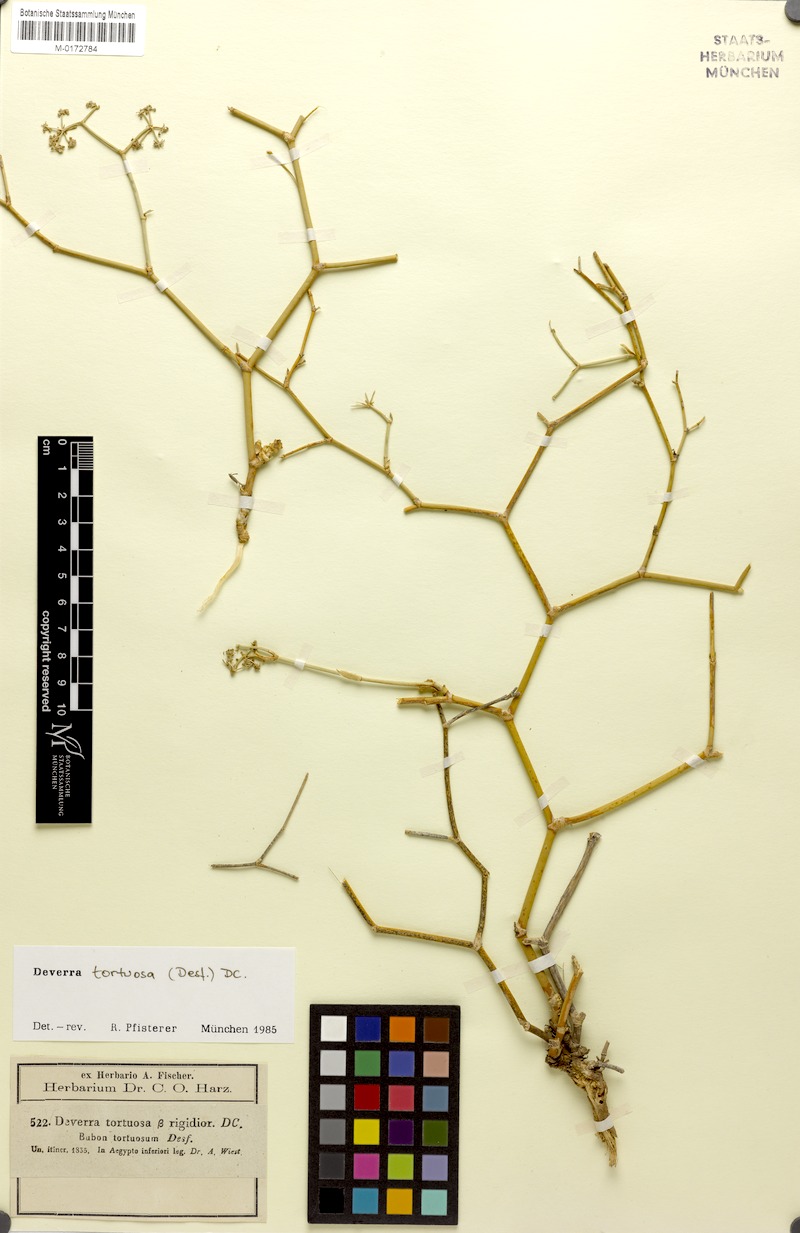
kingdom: Plantae
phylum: Tracheophyta
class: Magnoliopsida
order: Apiales
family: Apiaceae
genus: Deverra
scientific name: Deverra tortuosa
